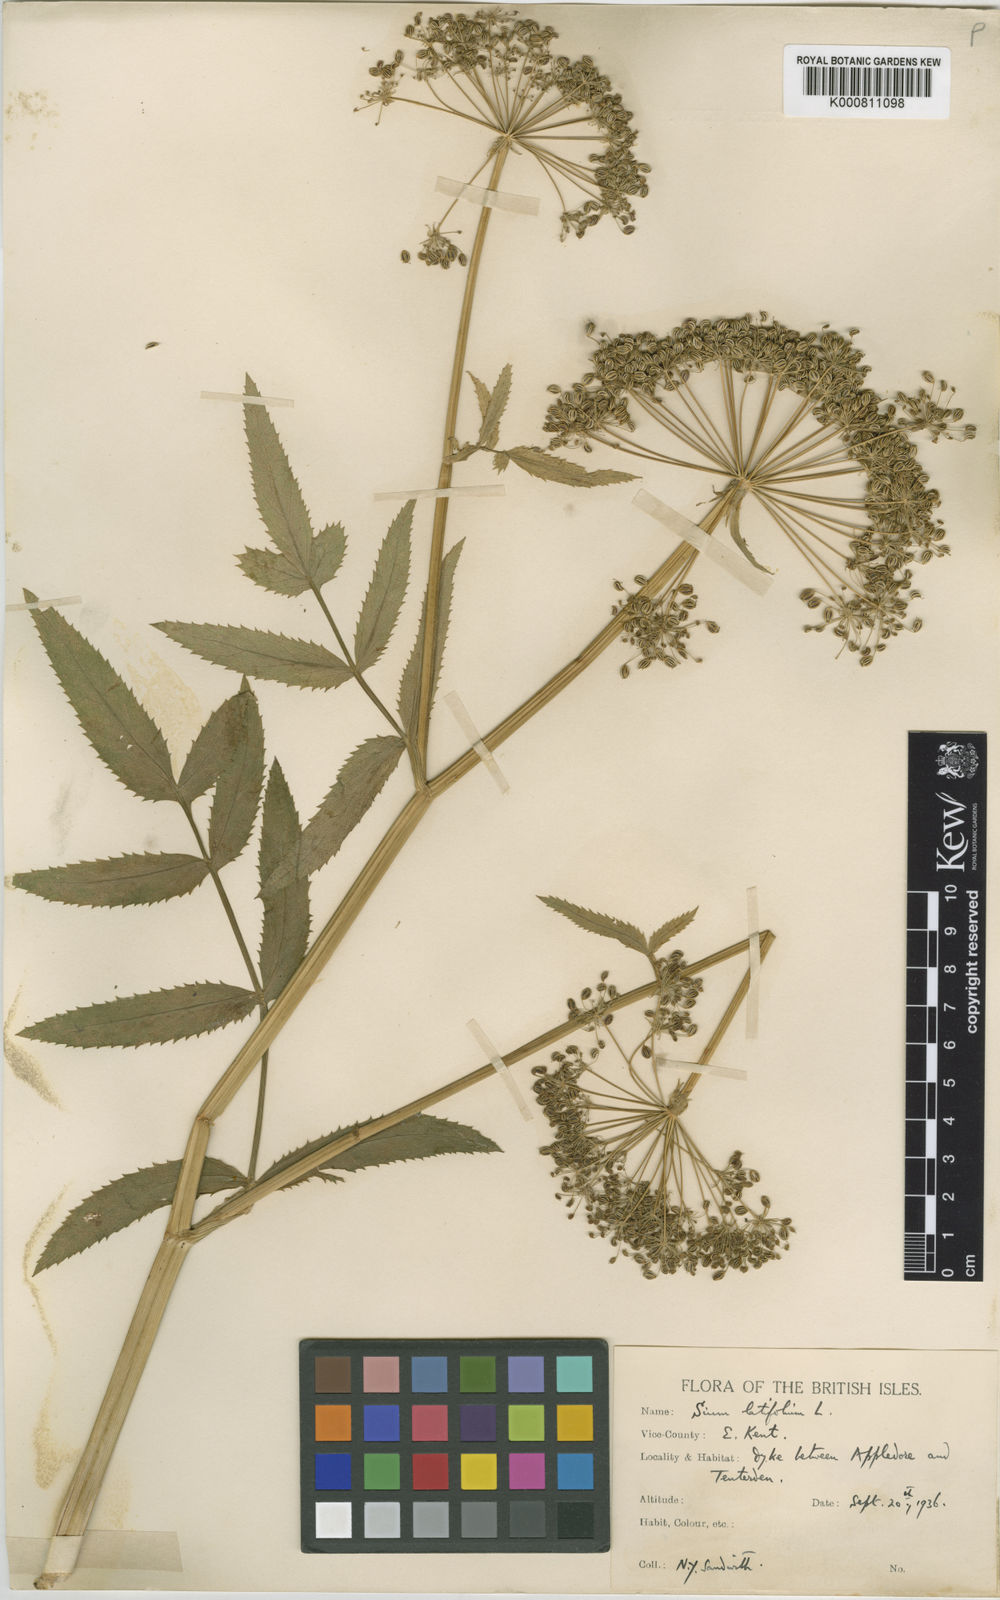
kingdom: Plantae
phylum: Tracheophyta
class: Magnoliopsida
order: Apiales
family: Apiaceae
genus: Sium
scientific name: Sium latifolium
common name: Greater water-parsnip
